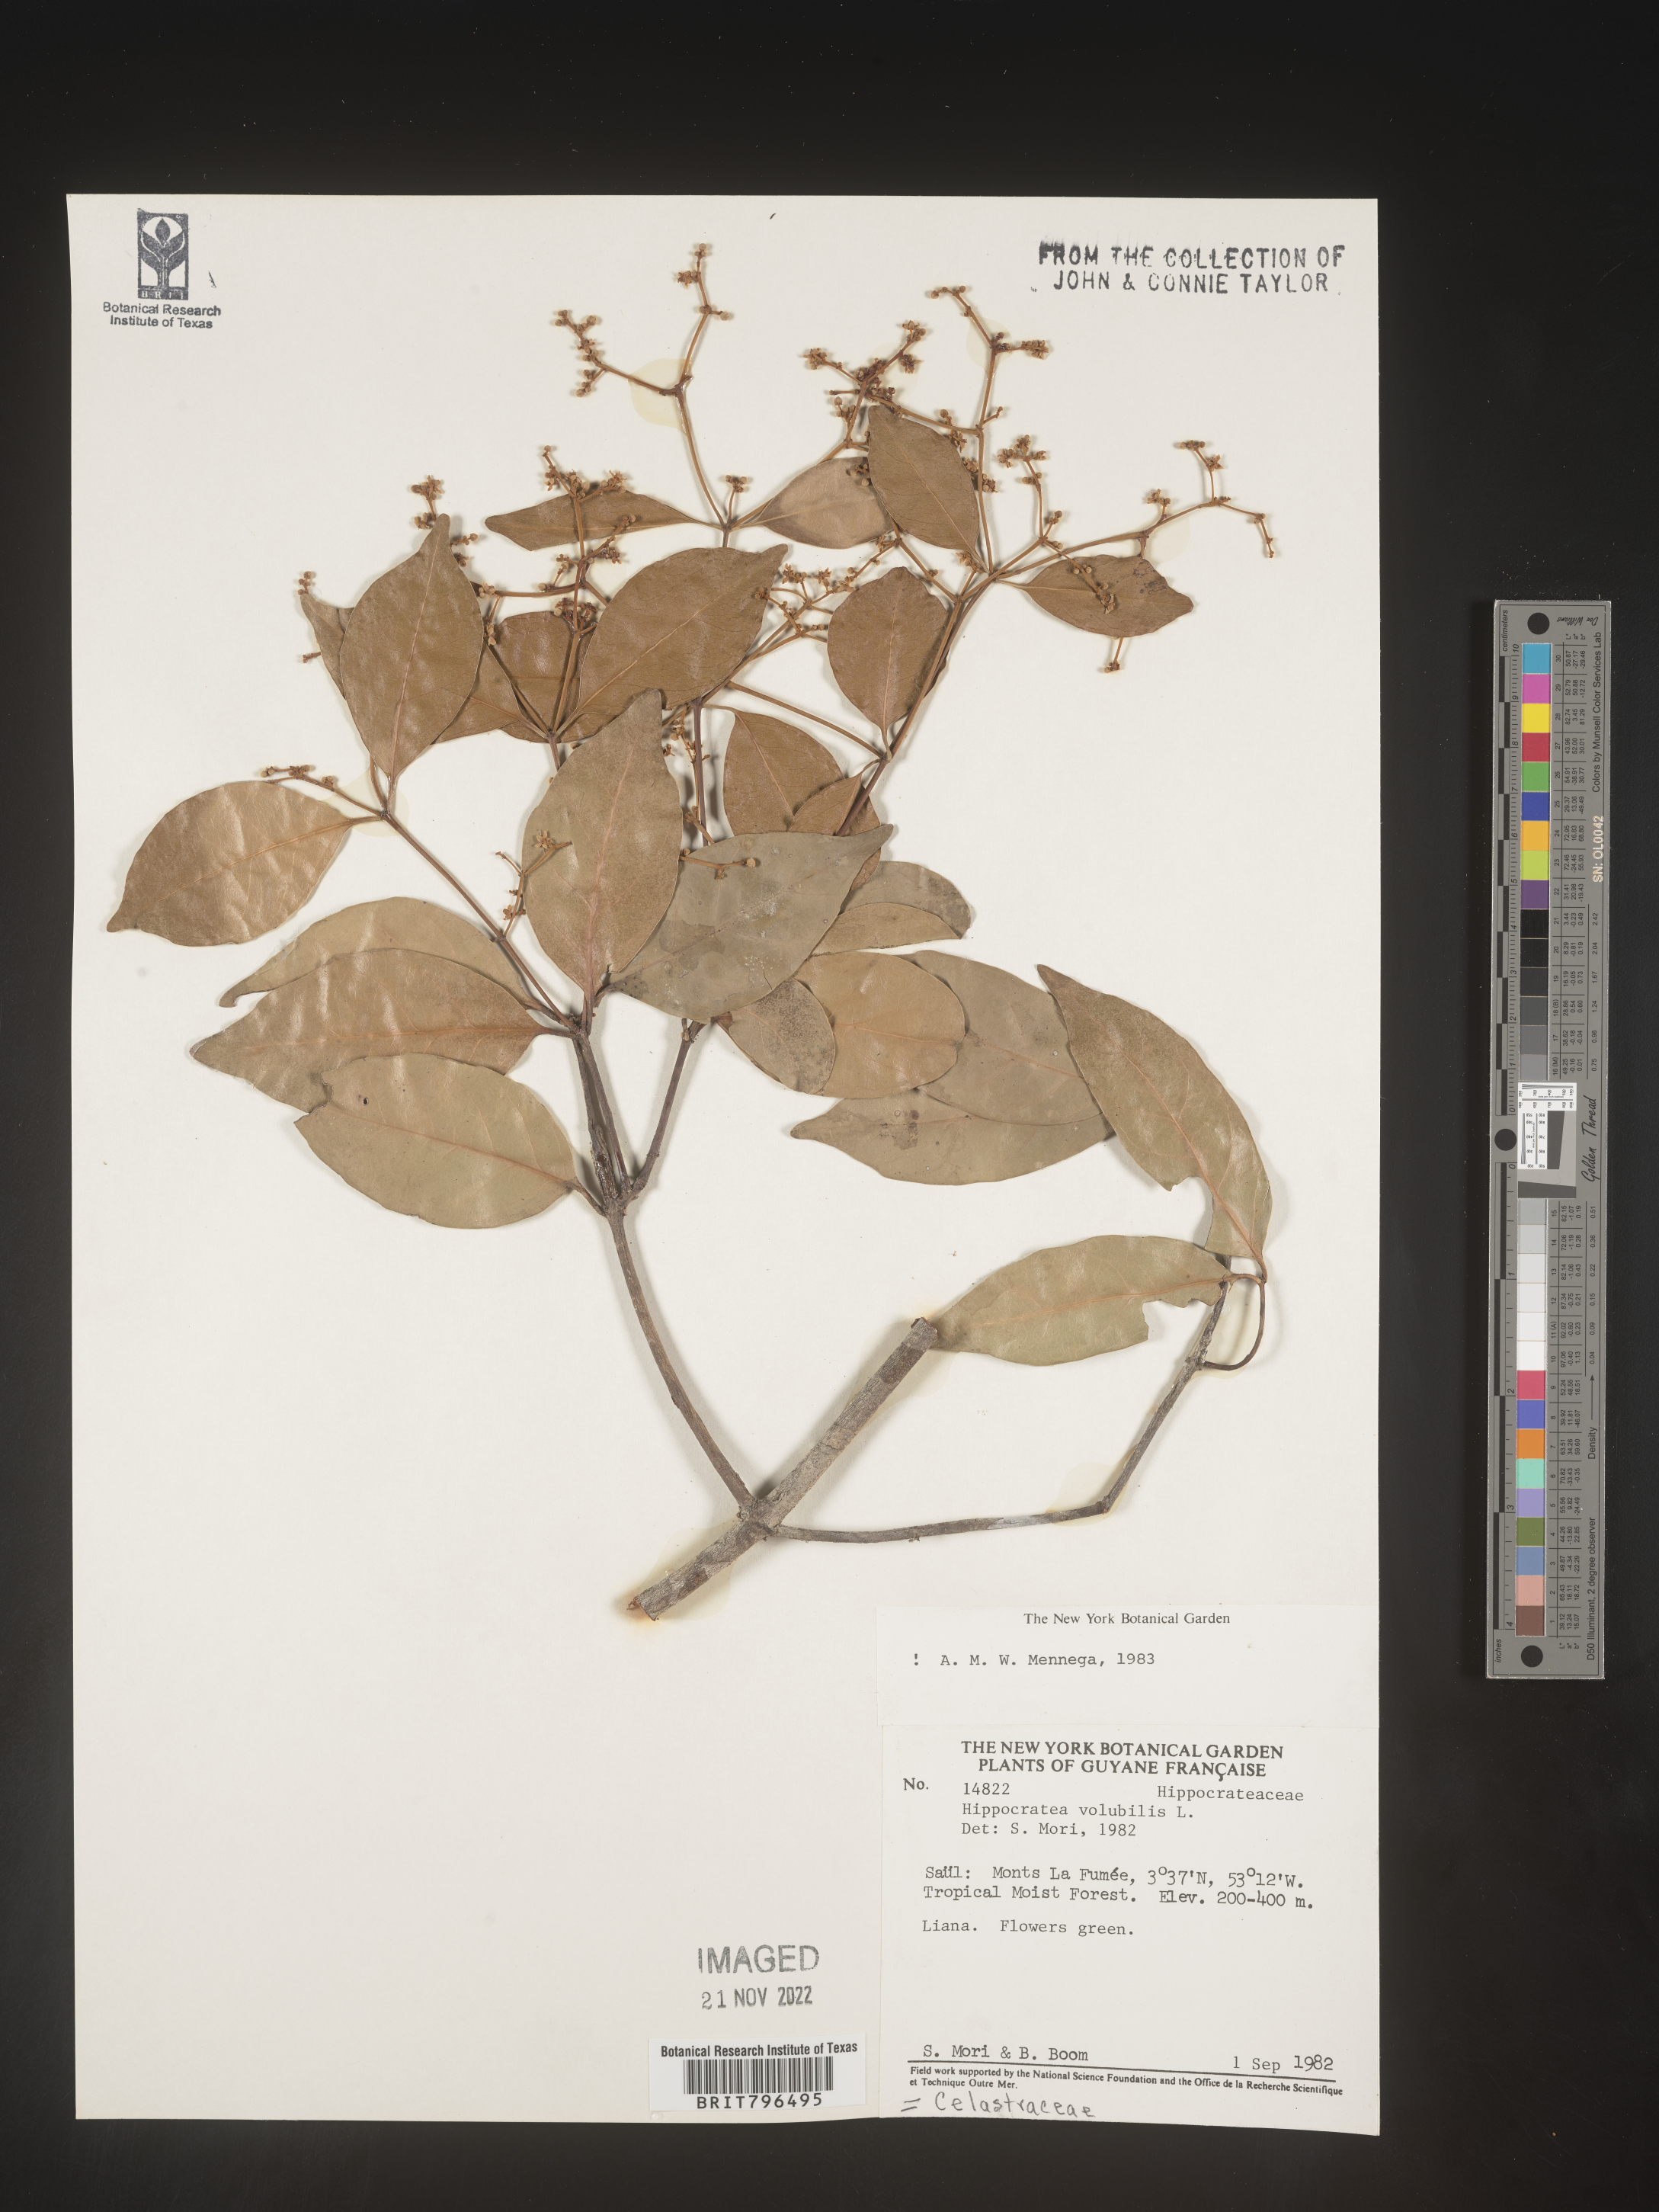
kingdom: Plantae
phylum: Tracheophyta
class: Magnoliopsida
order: Celastrales
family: Celastraceae
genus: Hippocratea
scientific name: Hippocratea
